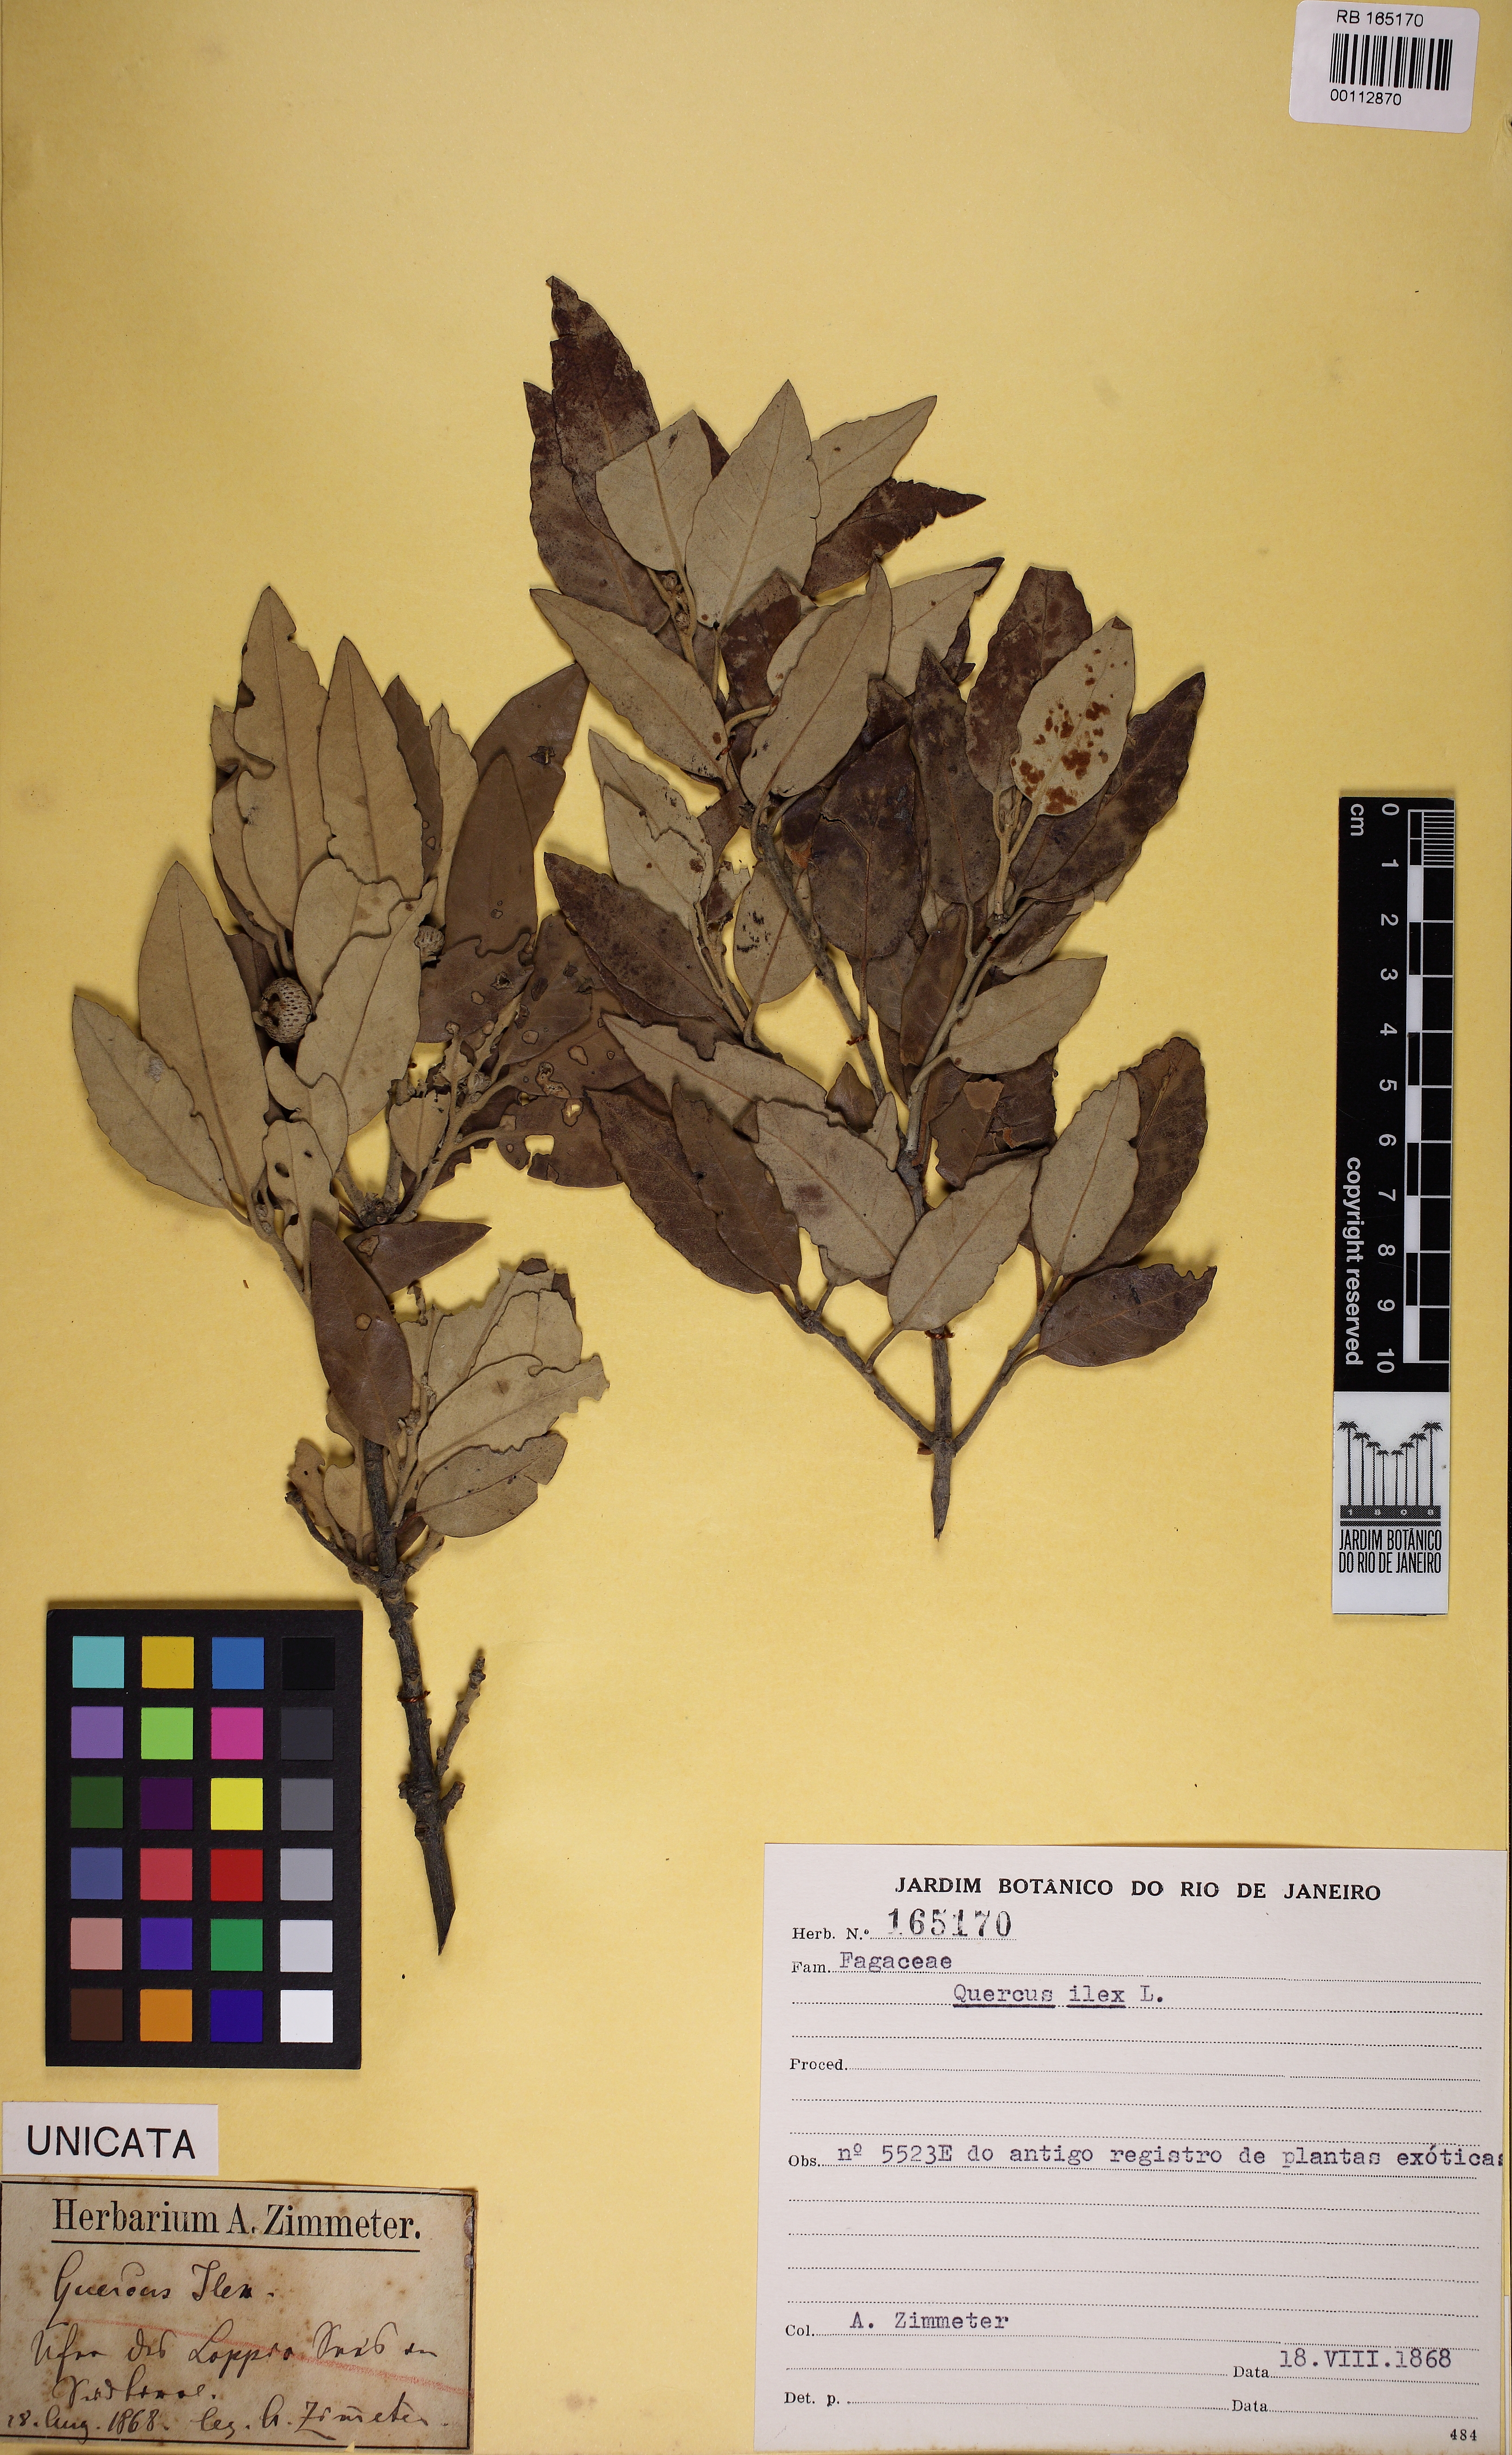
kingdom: Plantae
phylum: Tracheophyta
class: Magnoliopsida
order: Fagales
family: Fagaceae
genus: Quercus
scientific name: Quercus ilex
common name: Evergreen oak
